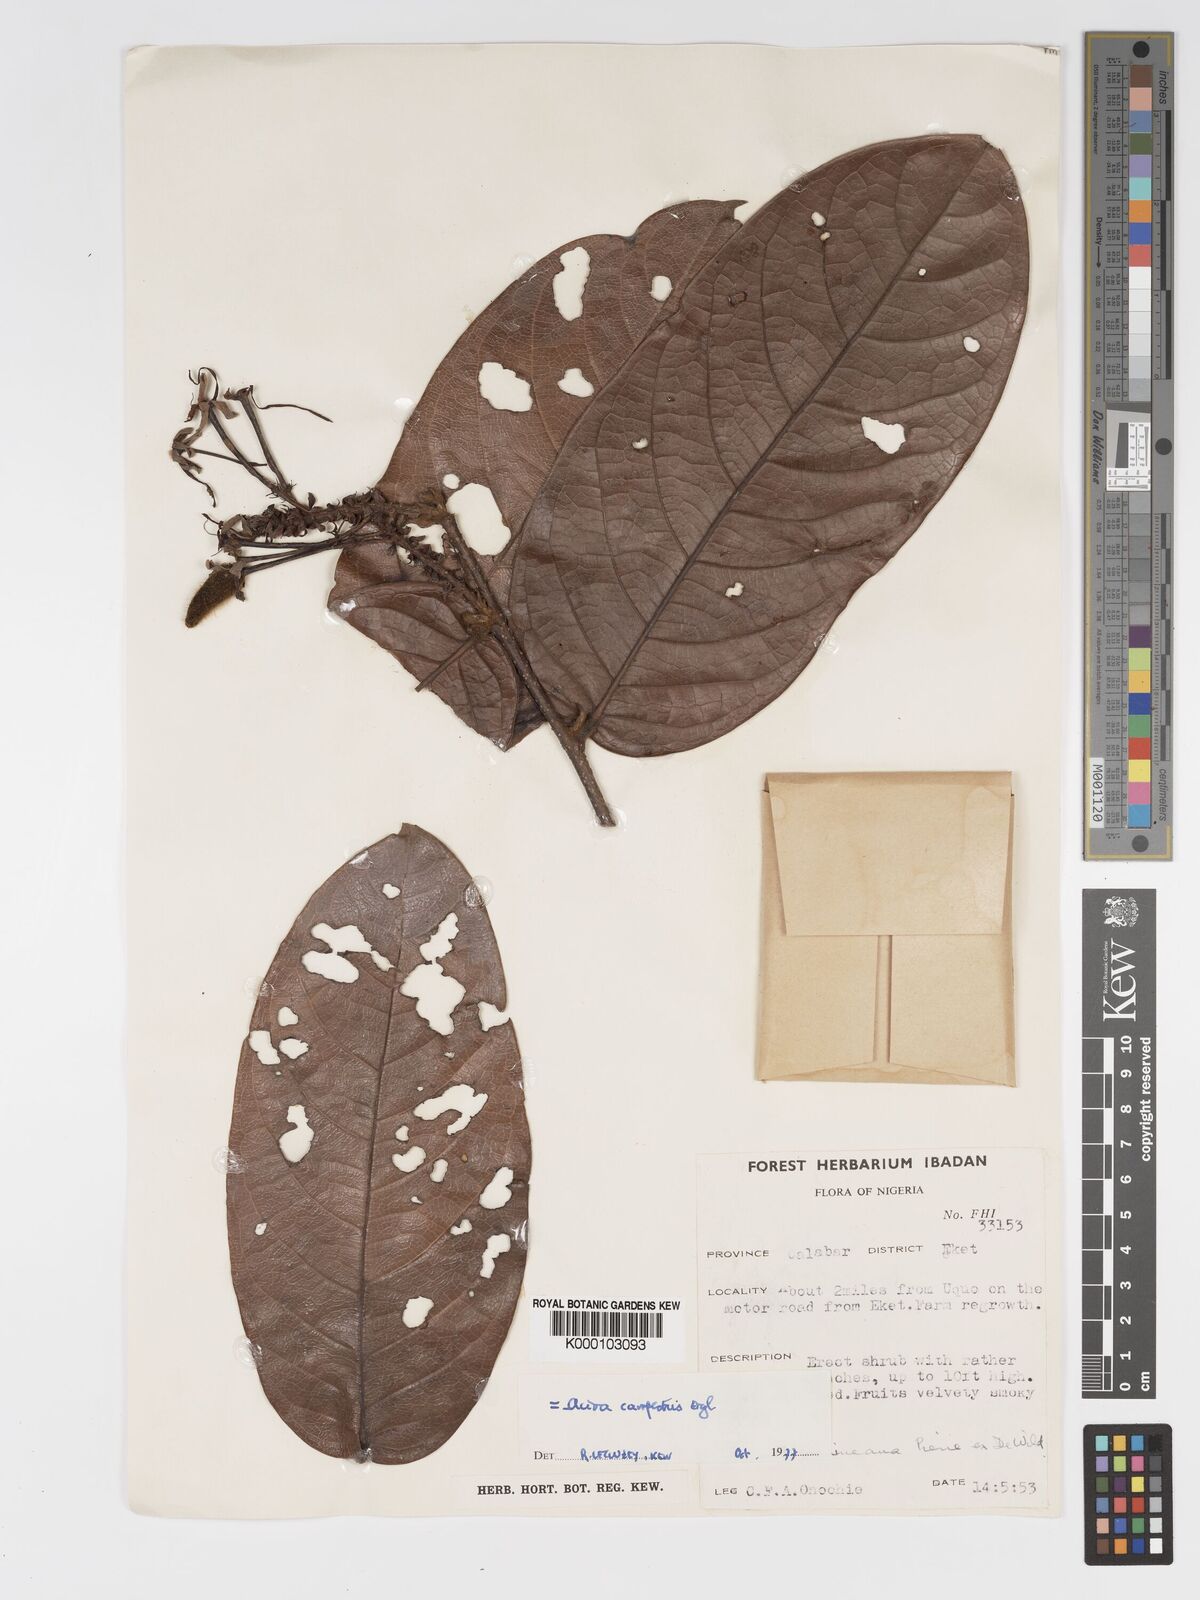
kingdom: Plantae
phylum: Tracheophyta
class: Magnoliopsida
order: Malpighiales
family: Chrysobalanaceae
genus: Dactyladenia
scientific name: Dactyladenia campestris
